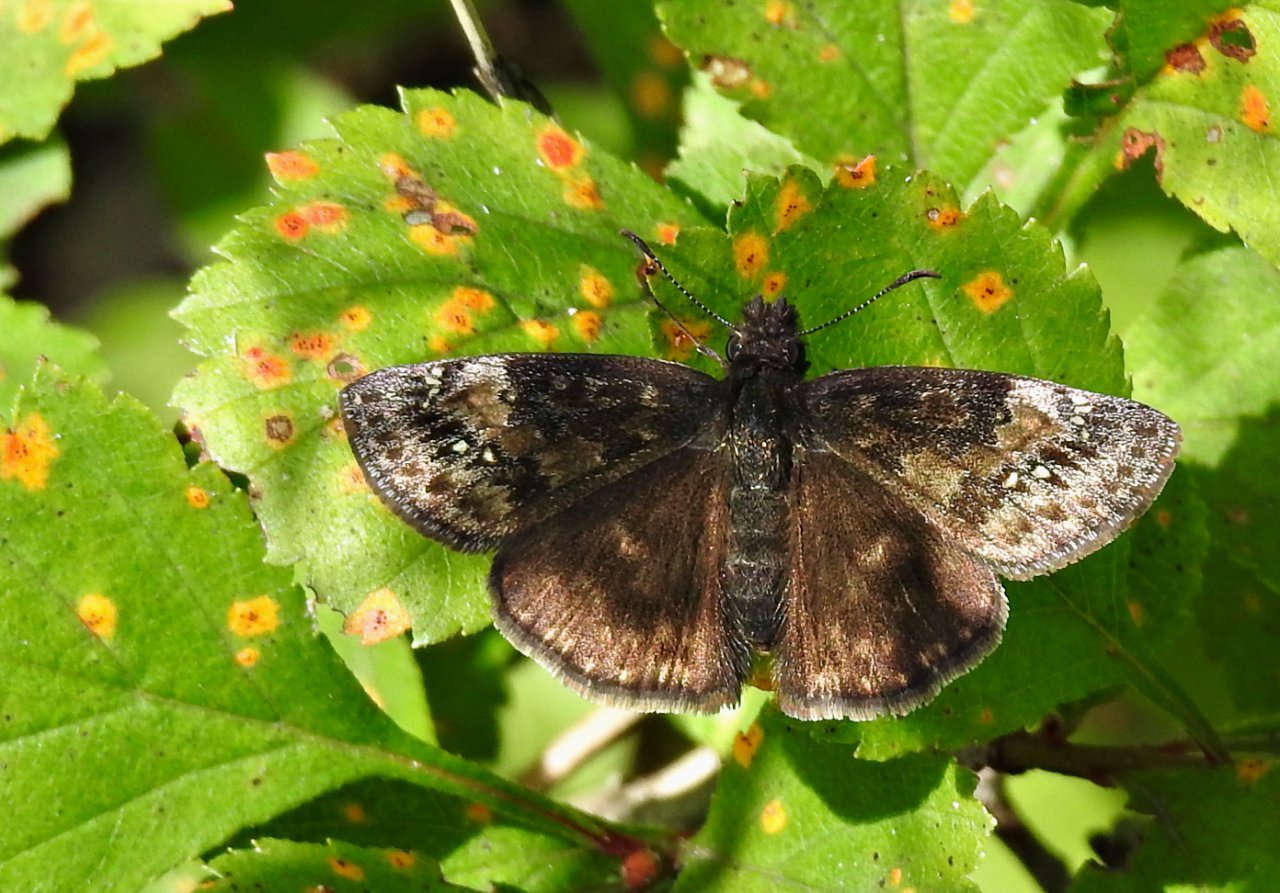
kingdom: Animalia
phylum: Arthropoda
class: Insecta
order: Lepidoptera
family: Hesperiidae
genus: Erynnis
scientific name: Erynnis
